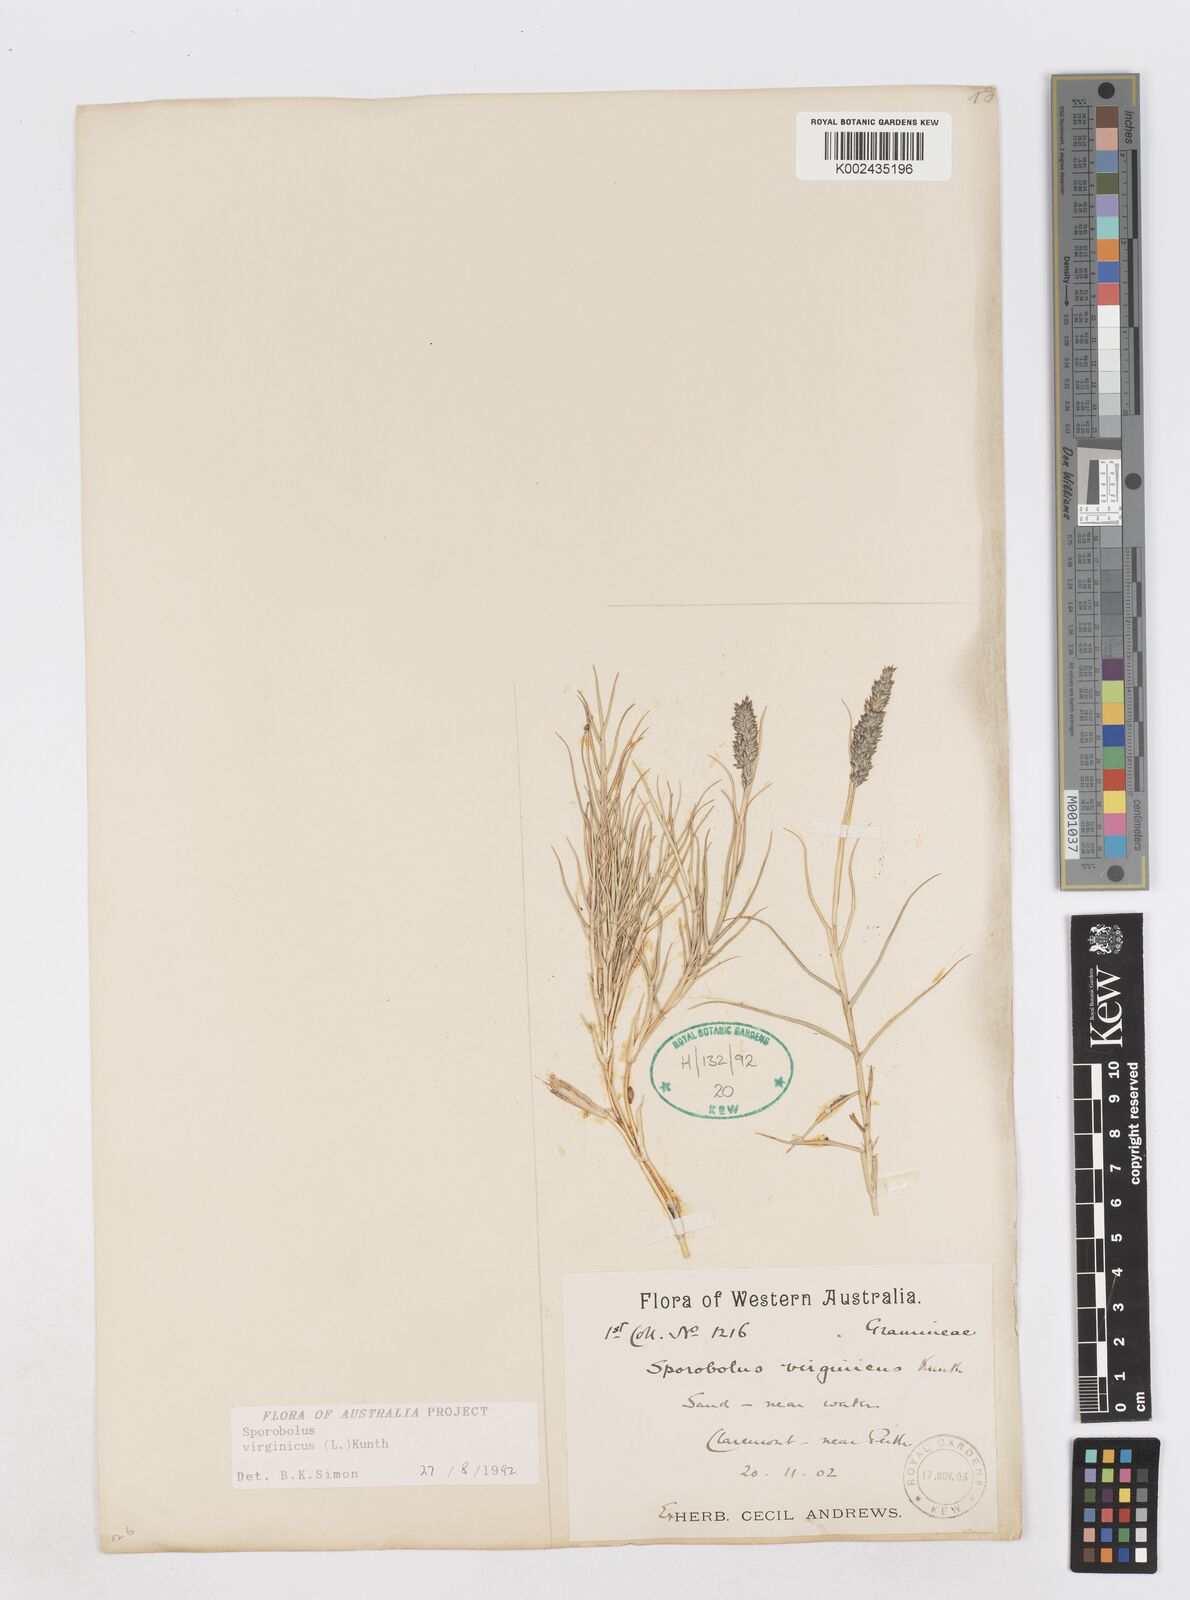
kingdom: Plantae
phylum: Tracheophyta
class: Liliopsida
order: Poales
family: Poaceae
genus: Sporobolus
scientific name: Sporobolus virginicus
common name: Beach dropseed
